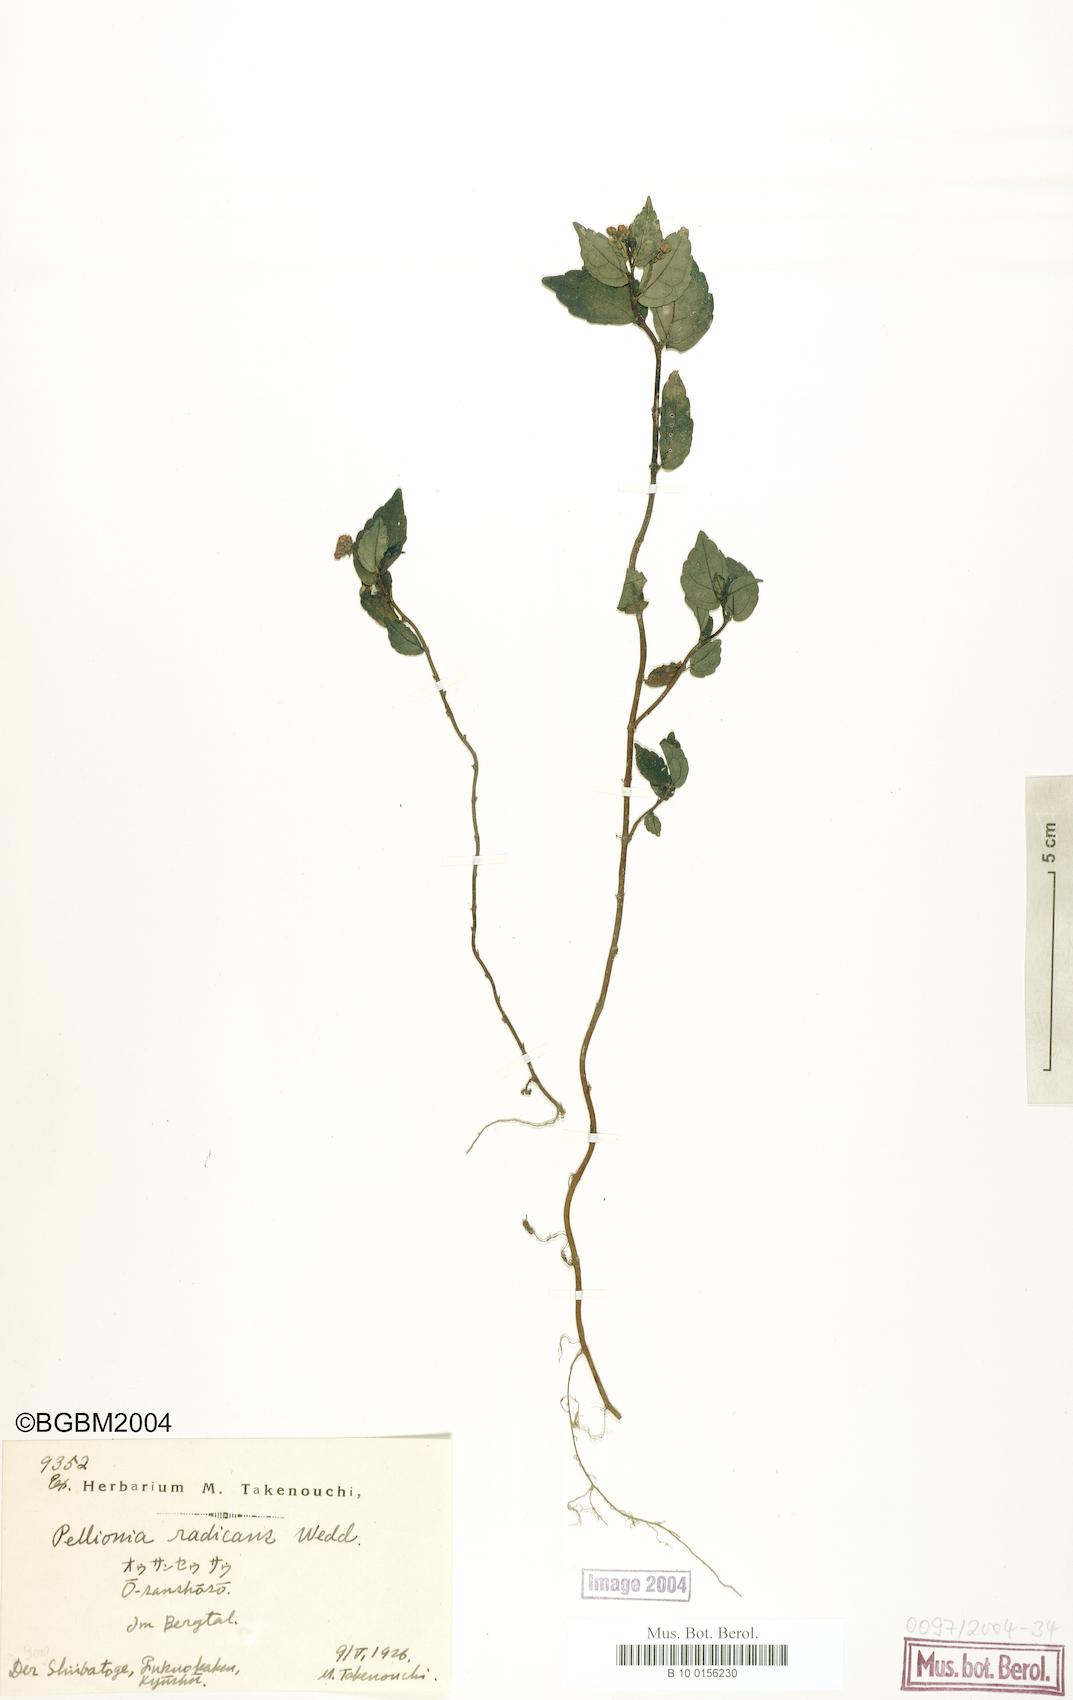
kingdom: Plantae
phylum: Tracheophyta
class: Magnoliopsida
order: Rosales
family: Urticaceae
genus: Elatostema
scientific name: Elatostema radicans
